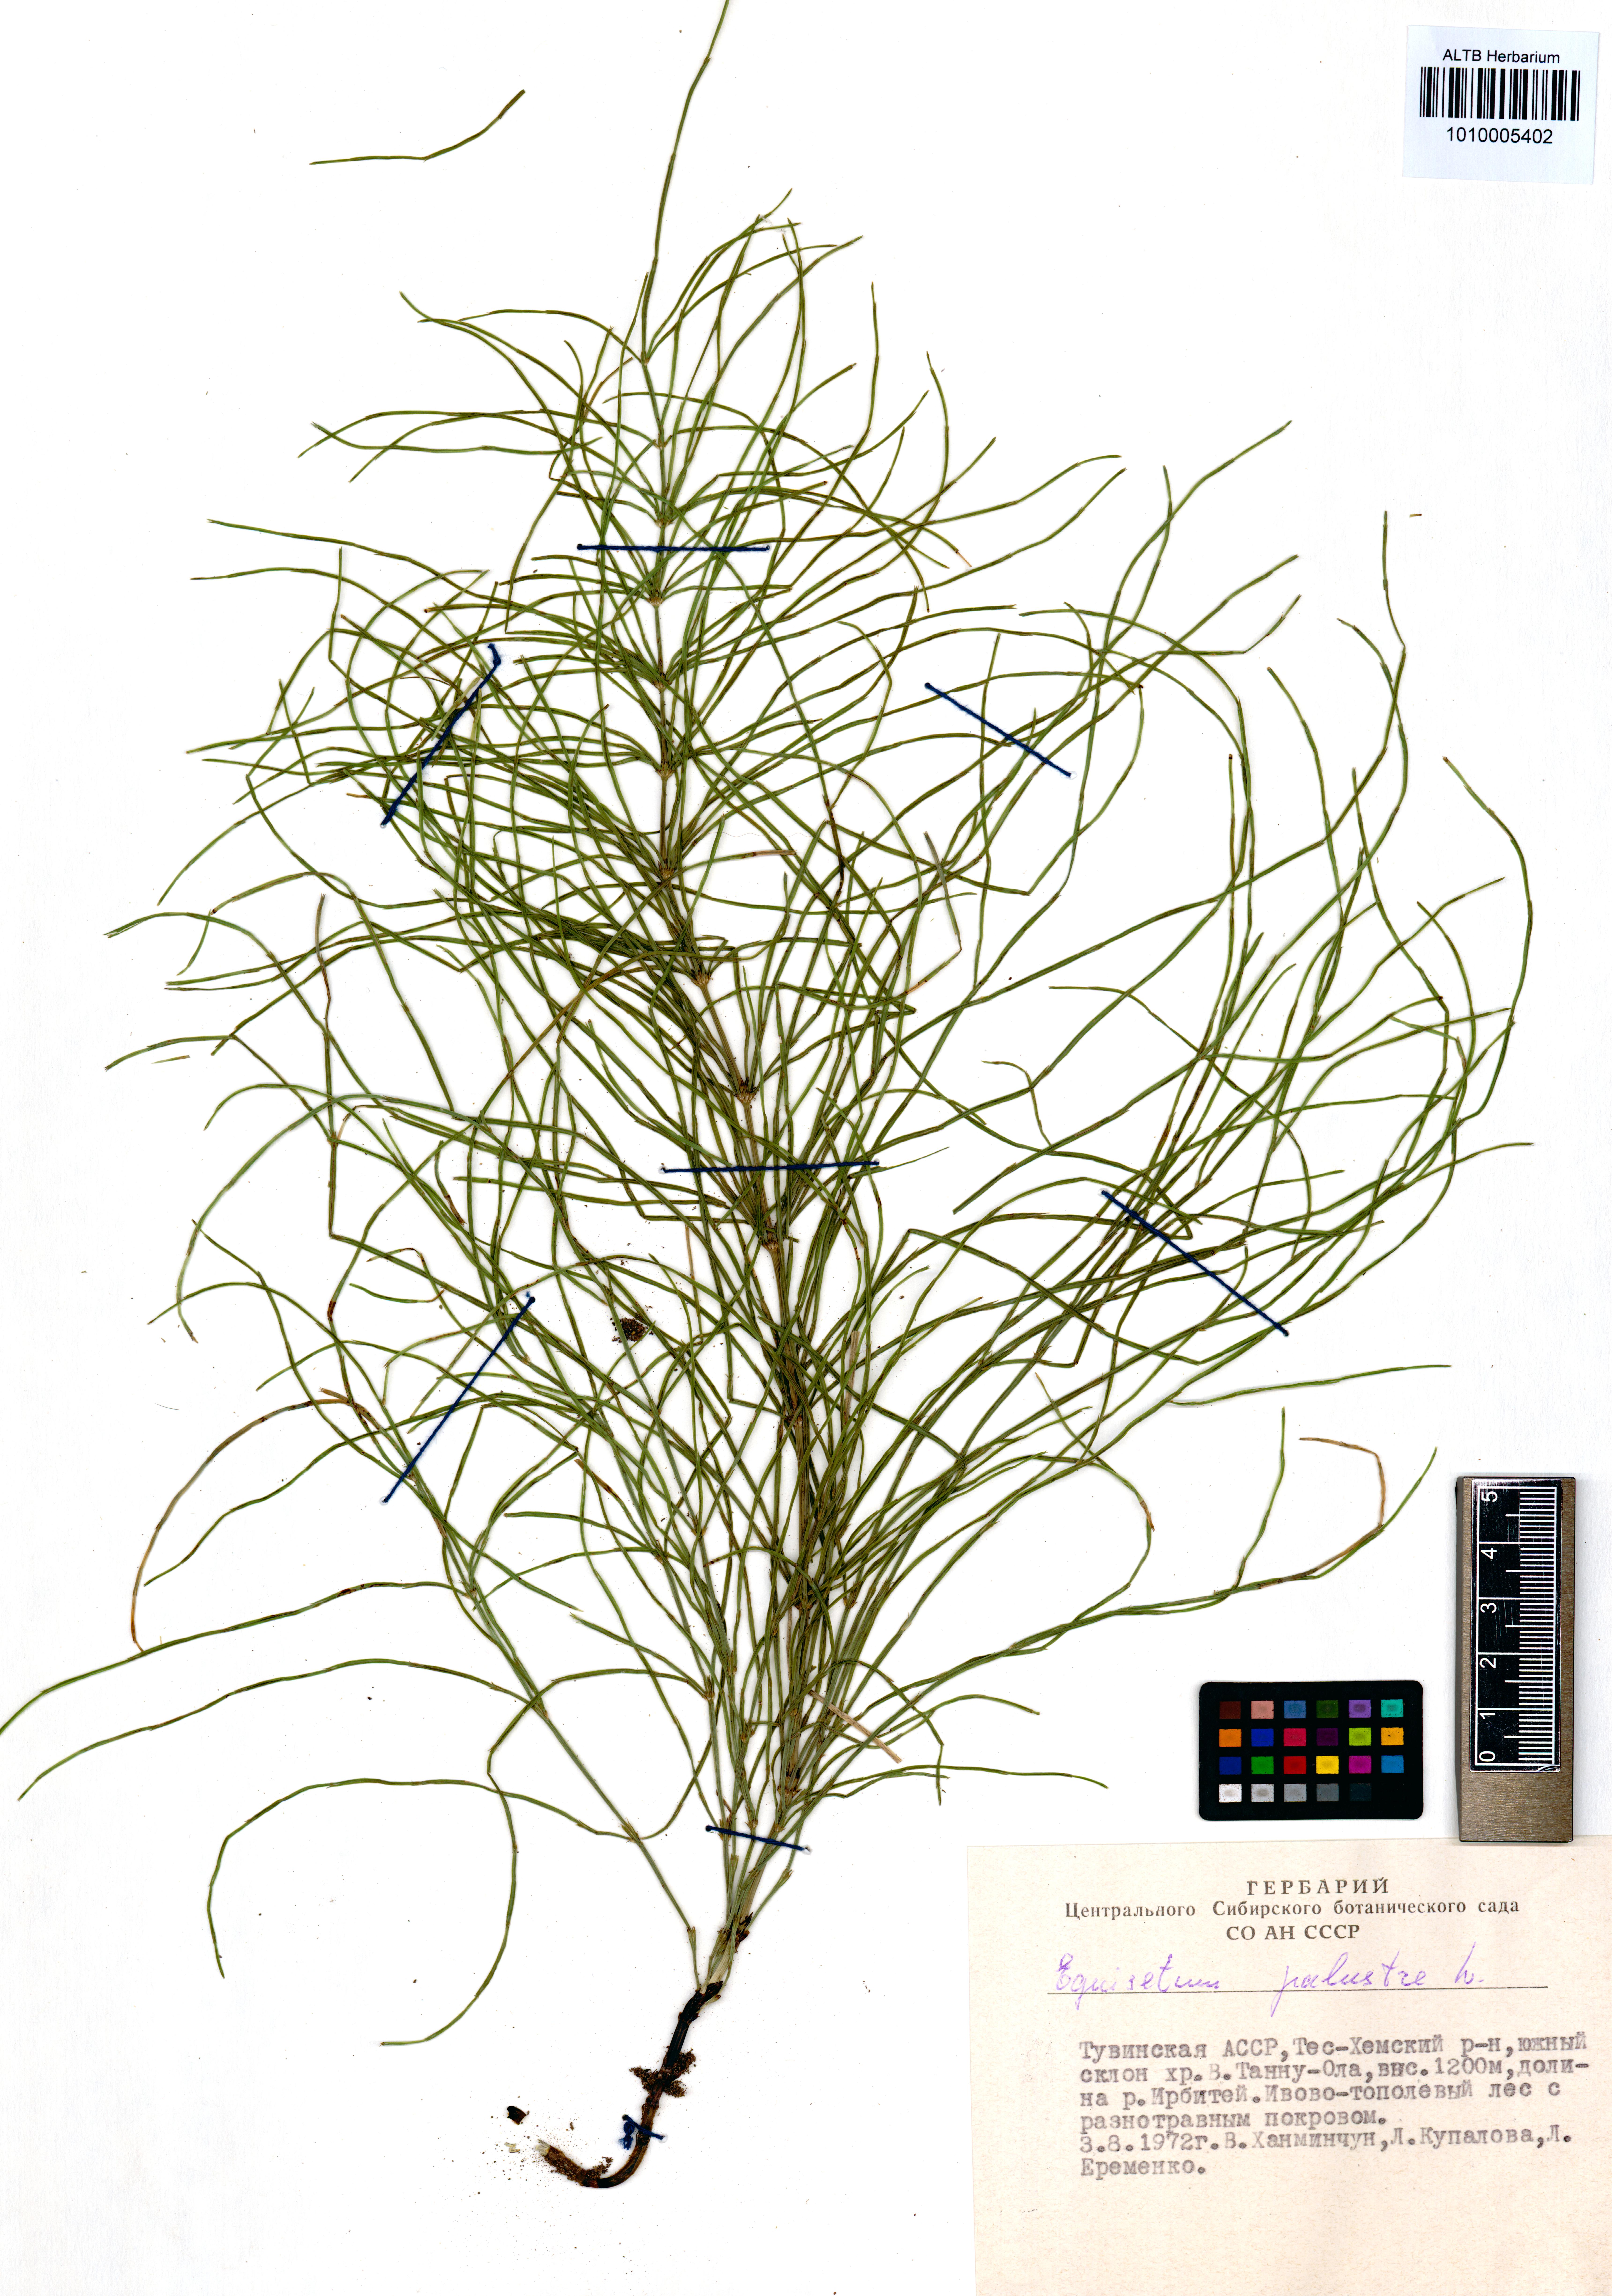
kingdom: Plantae
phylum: Tracheophyta
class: Polypodiopsida
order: Equisetales
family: Equisetaceae
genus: Equisetum
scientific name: Equisetum palustre
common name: Marsh horsetail
